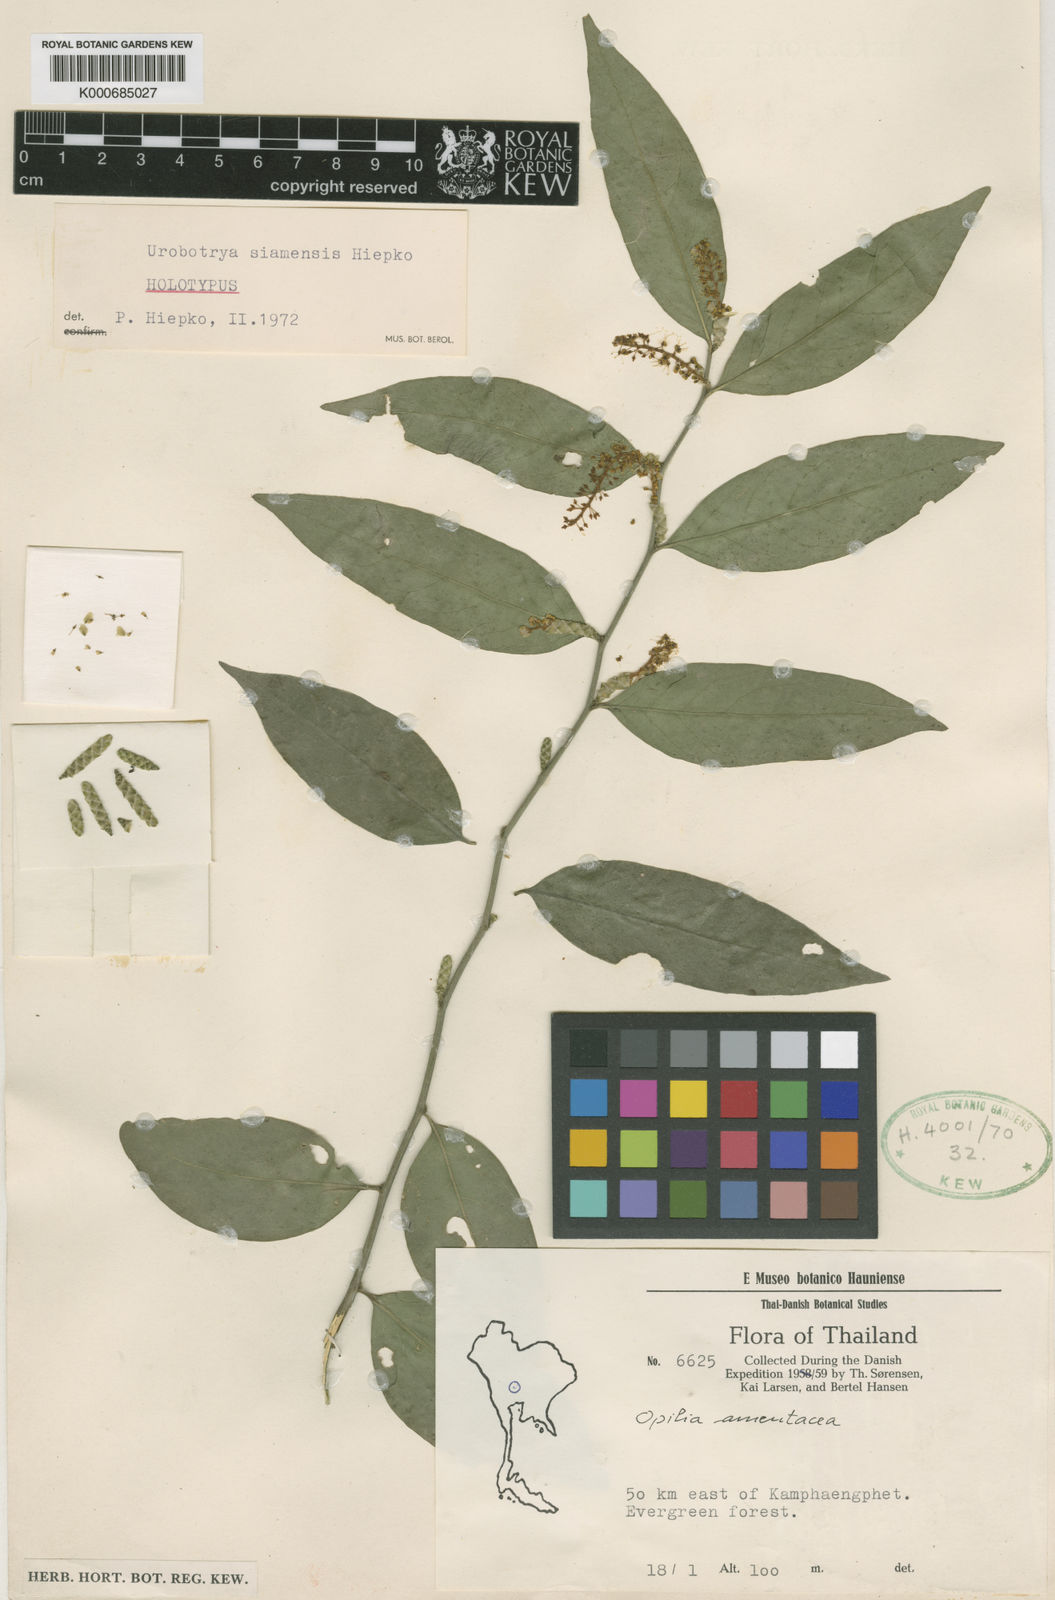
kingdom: Plantae
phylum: Tracheophyta
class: Magnoliopsida
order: Santalales
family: Opiliaceae
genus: Urobotrya
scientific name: Urobotrya siamensis
